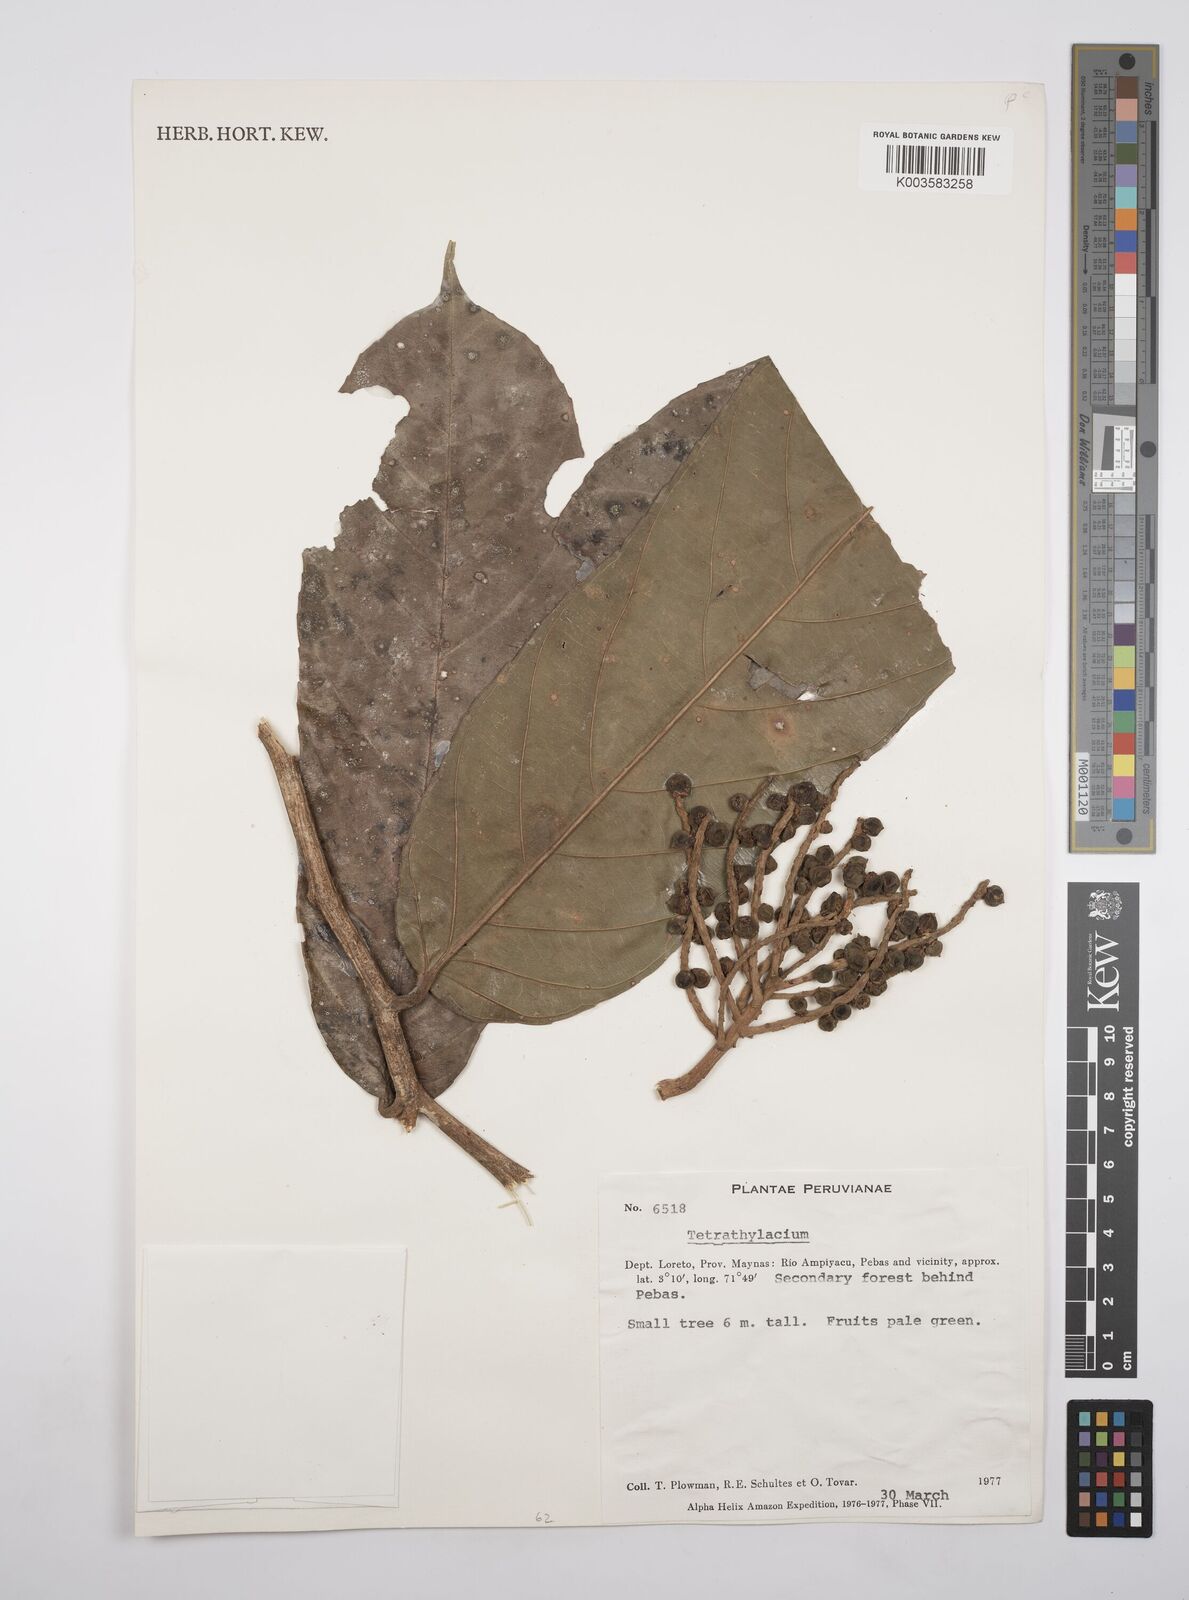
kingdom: Plantae
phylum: Tracheophyta
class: Magnoliopsida
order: Malpighiales
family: Salicaceae
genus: Tetrathylacium
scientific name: Tetrathylacium
